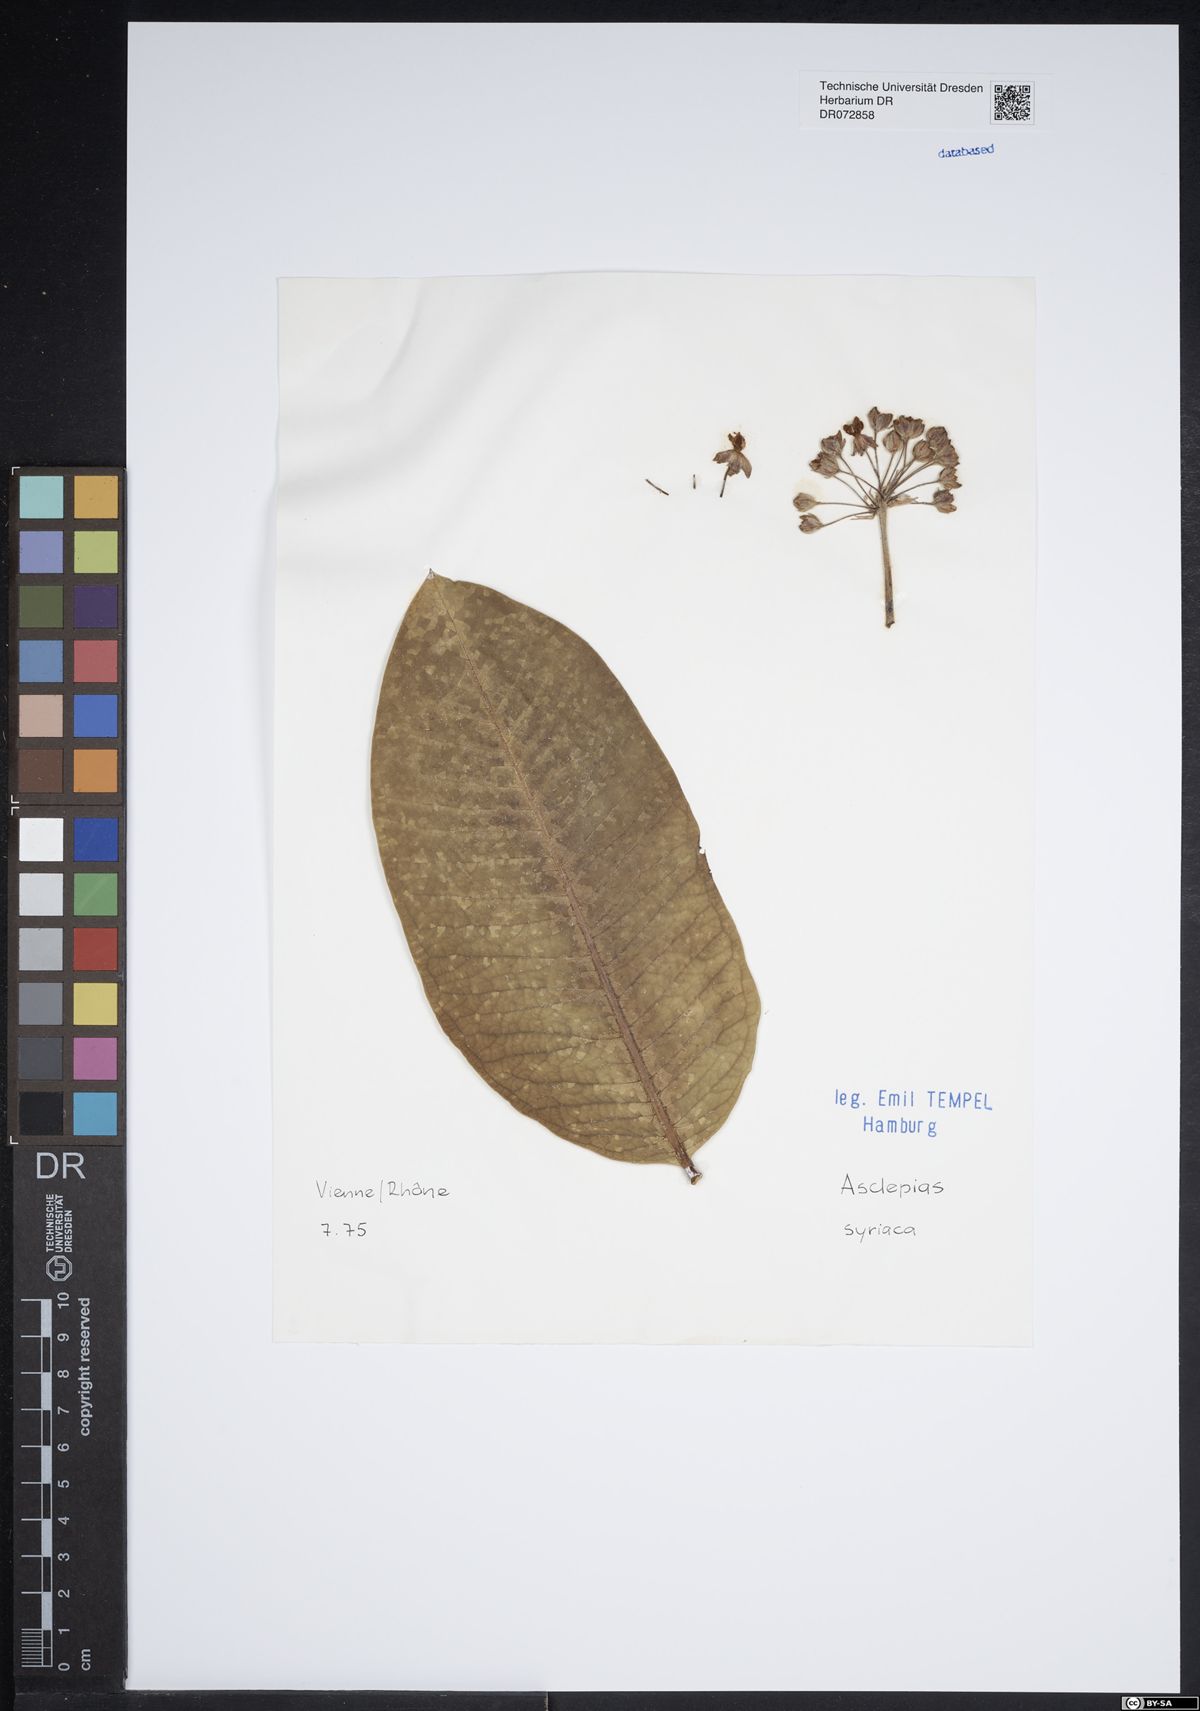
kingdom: Plantae
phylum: Tracheophyta
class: Magnoliopsida
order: Gentianales
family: Apocynaceae
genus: Asclepias
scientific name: Asclepias syriaca
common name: Common milkweed
